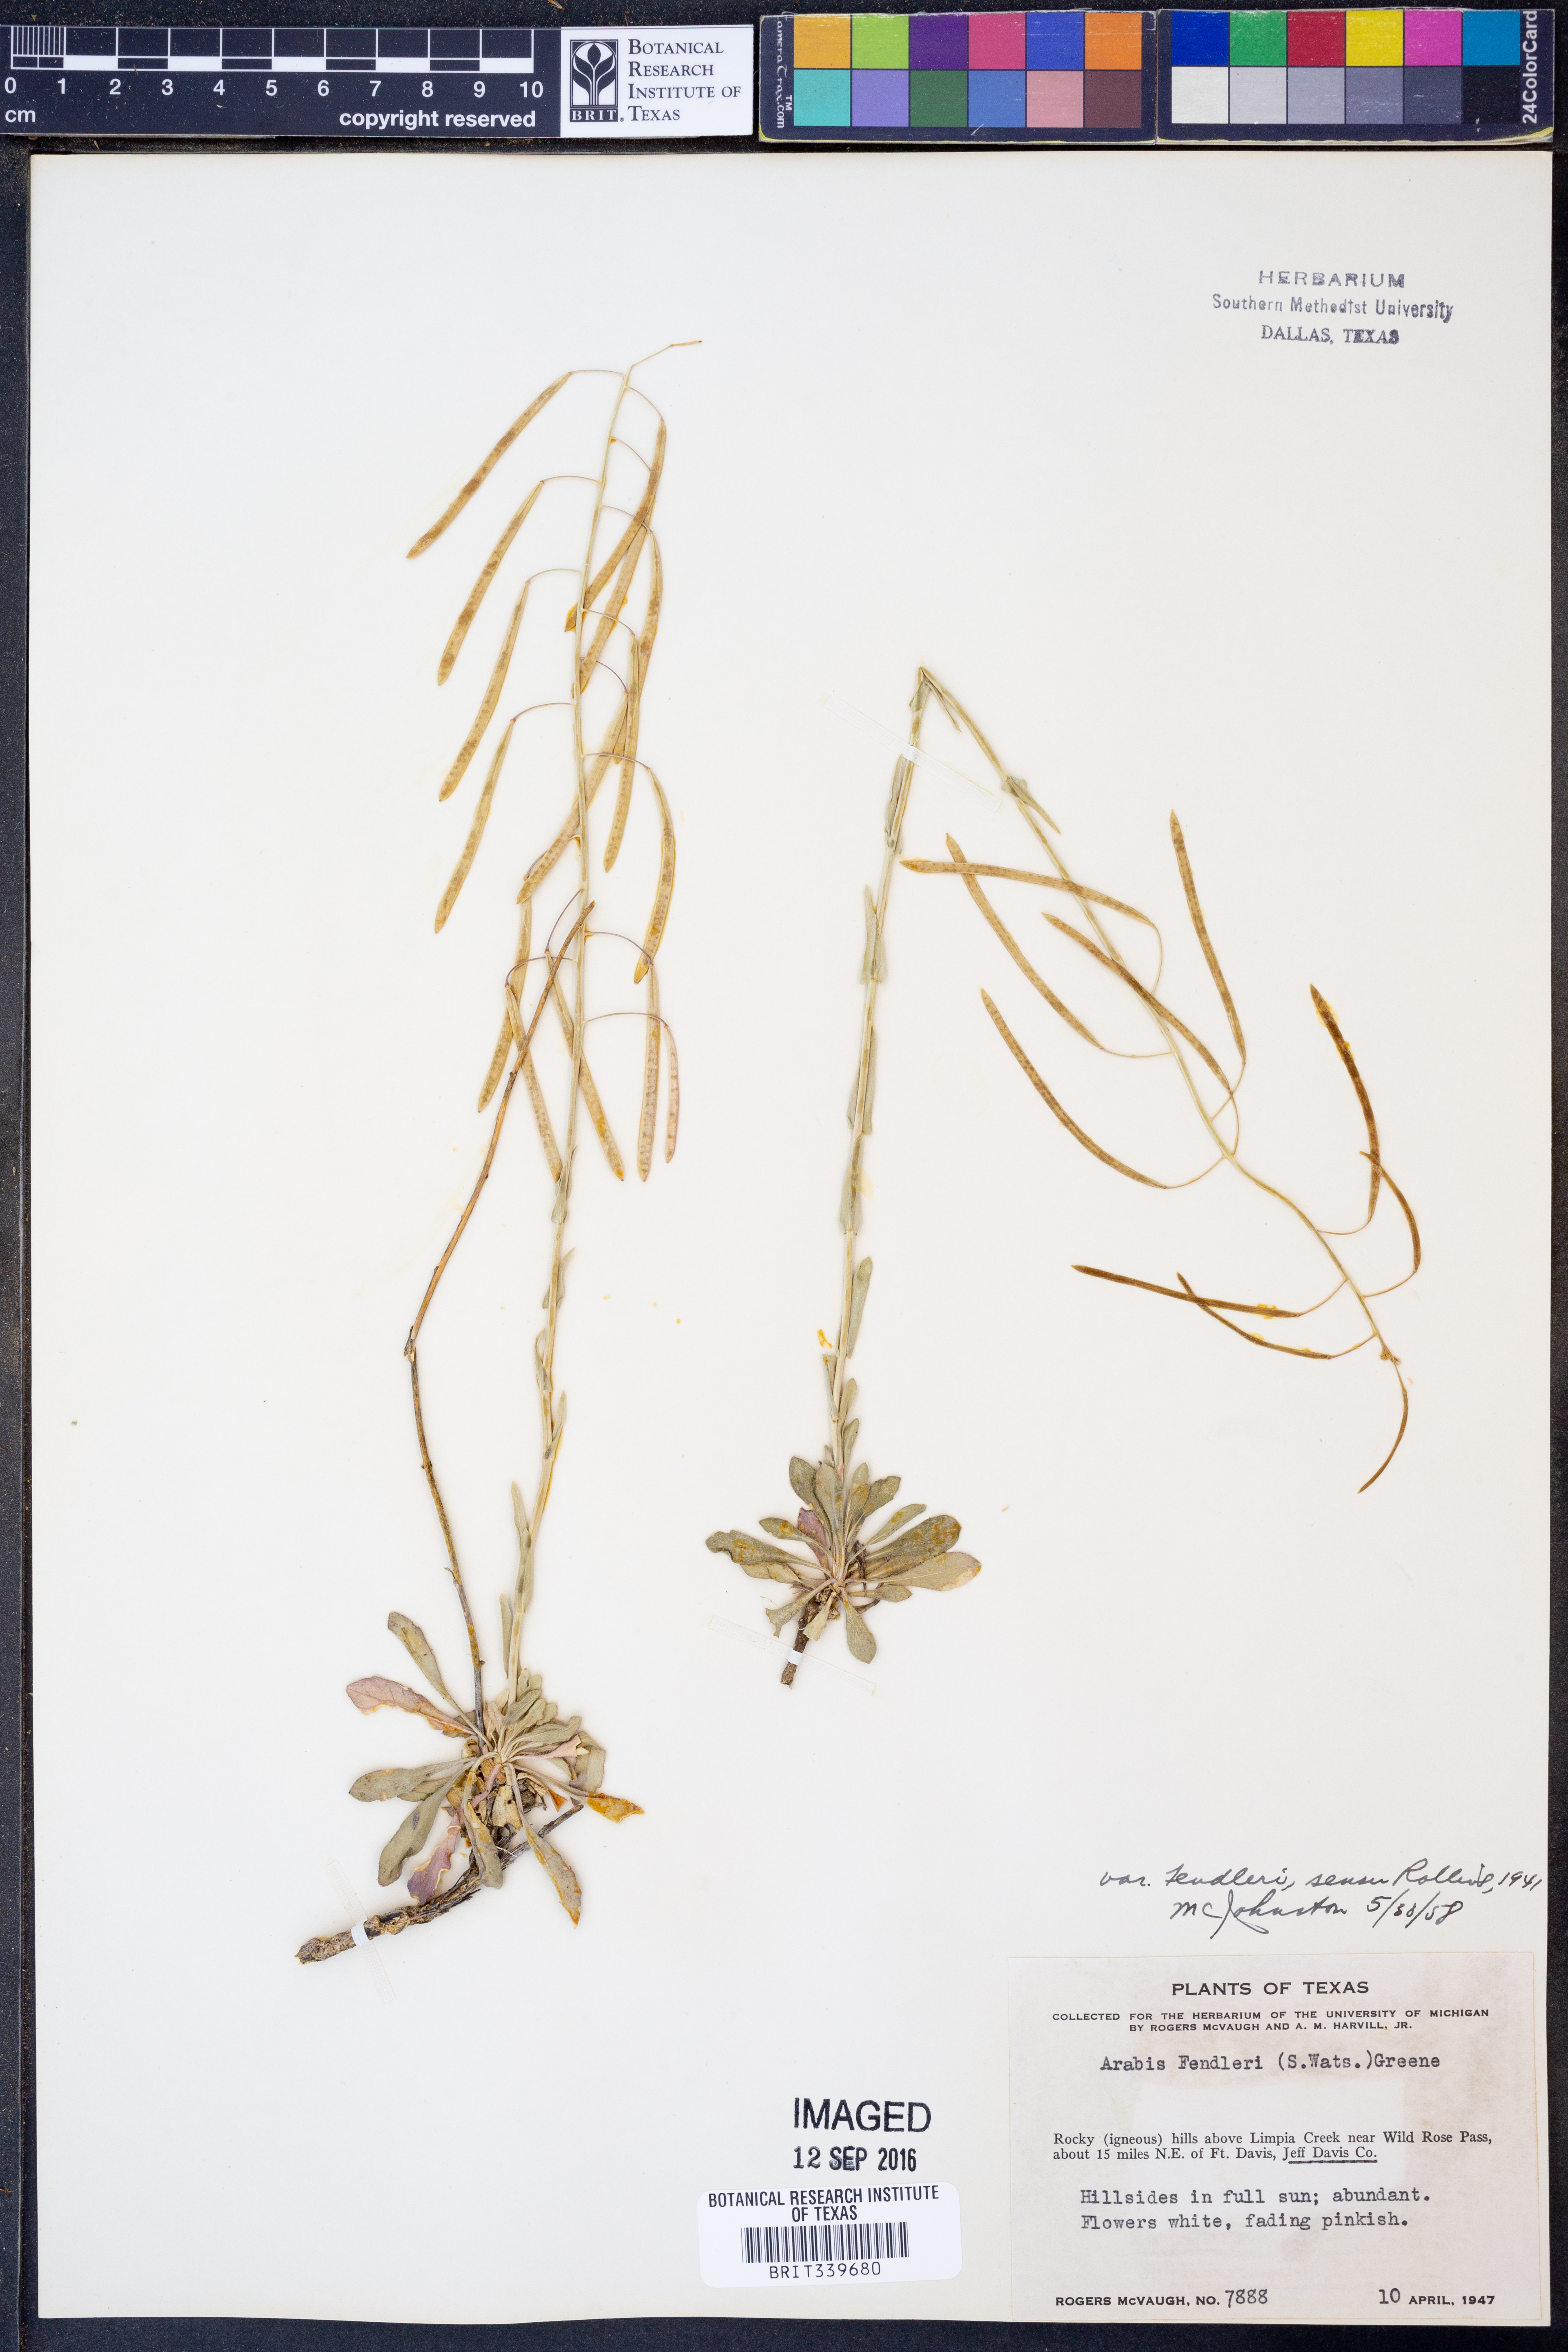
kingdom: Plantae
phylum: Tracheophyta
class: Magnoliopsida
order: Brassicales
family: Brassicaceae
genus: Boechera
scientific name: Boechera fendleri
